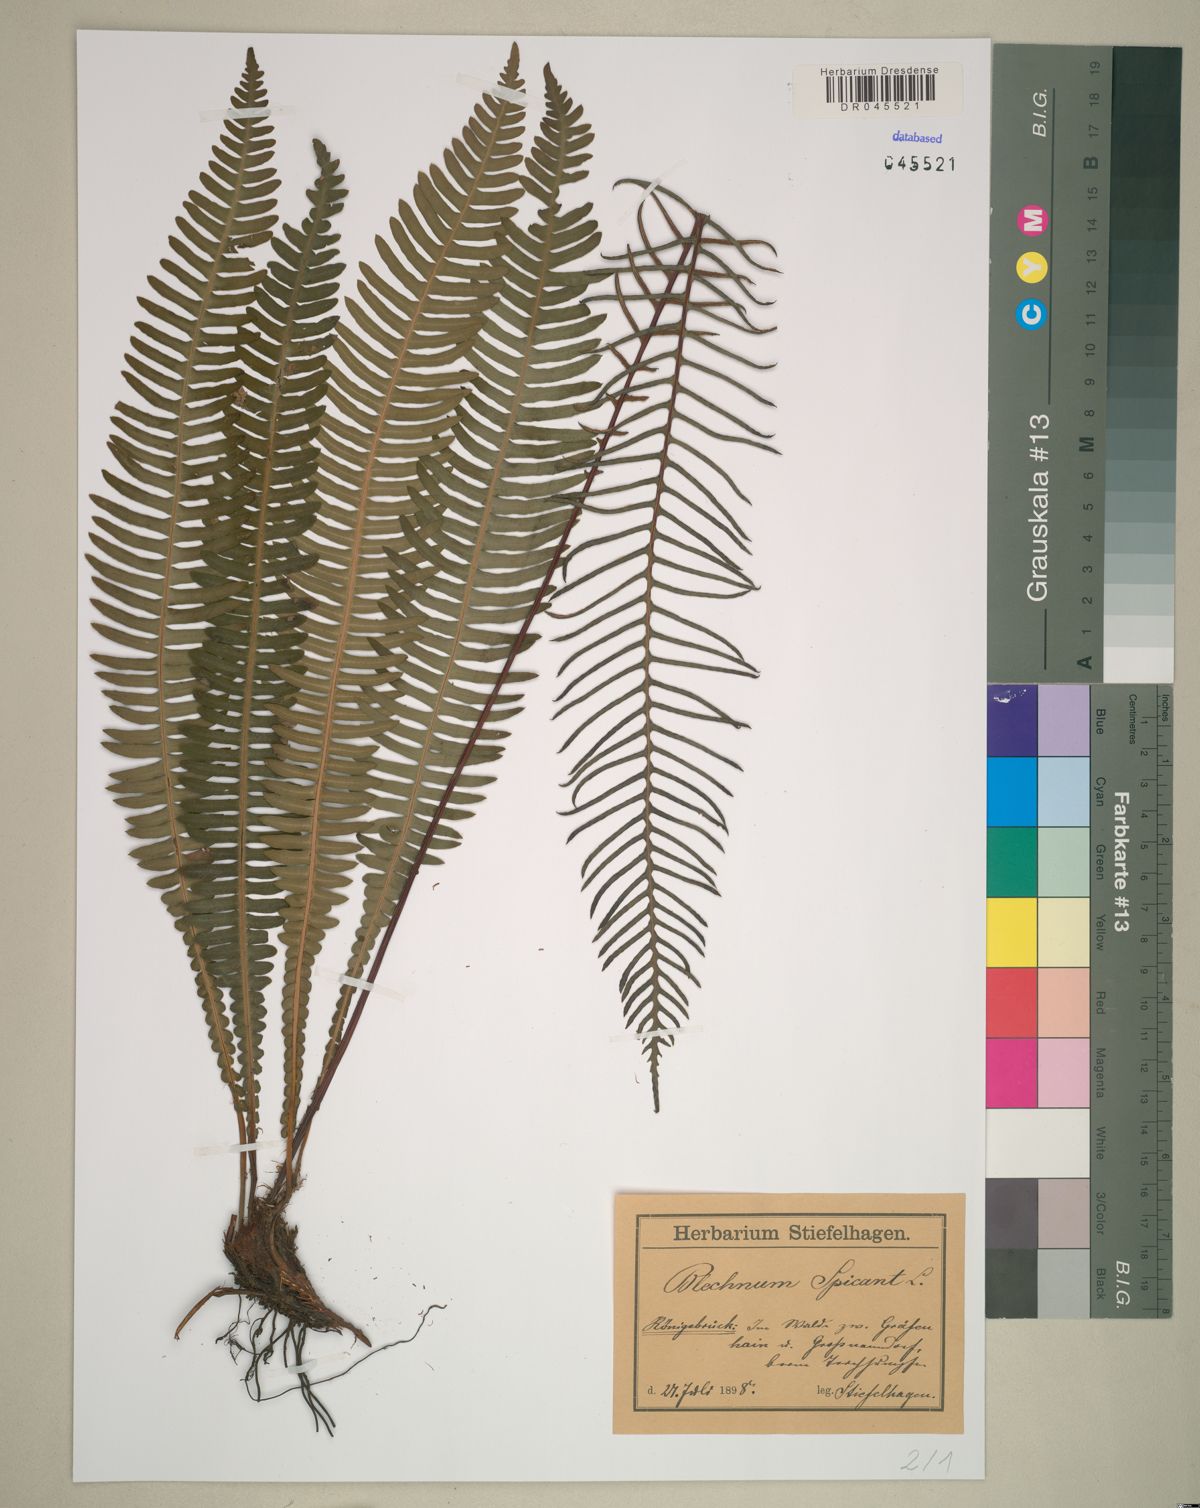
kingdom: Plantae
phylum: Tracheophyta
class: Polypodiopsida
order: Polypodiales
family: Blechnaceae
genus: Struthiopteris
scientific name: Struthiopteris spicant
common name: Deer fern
